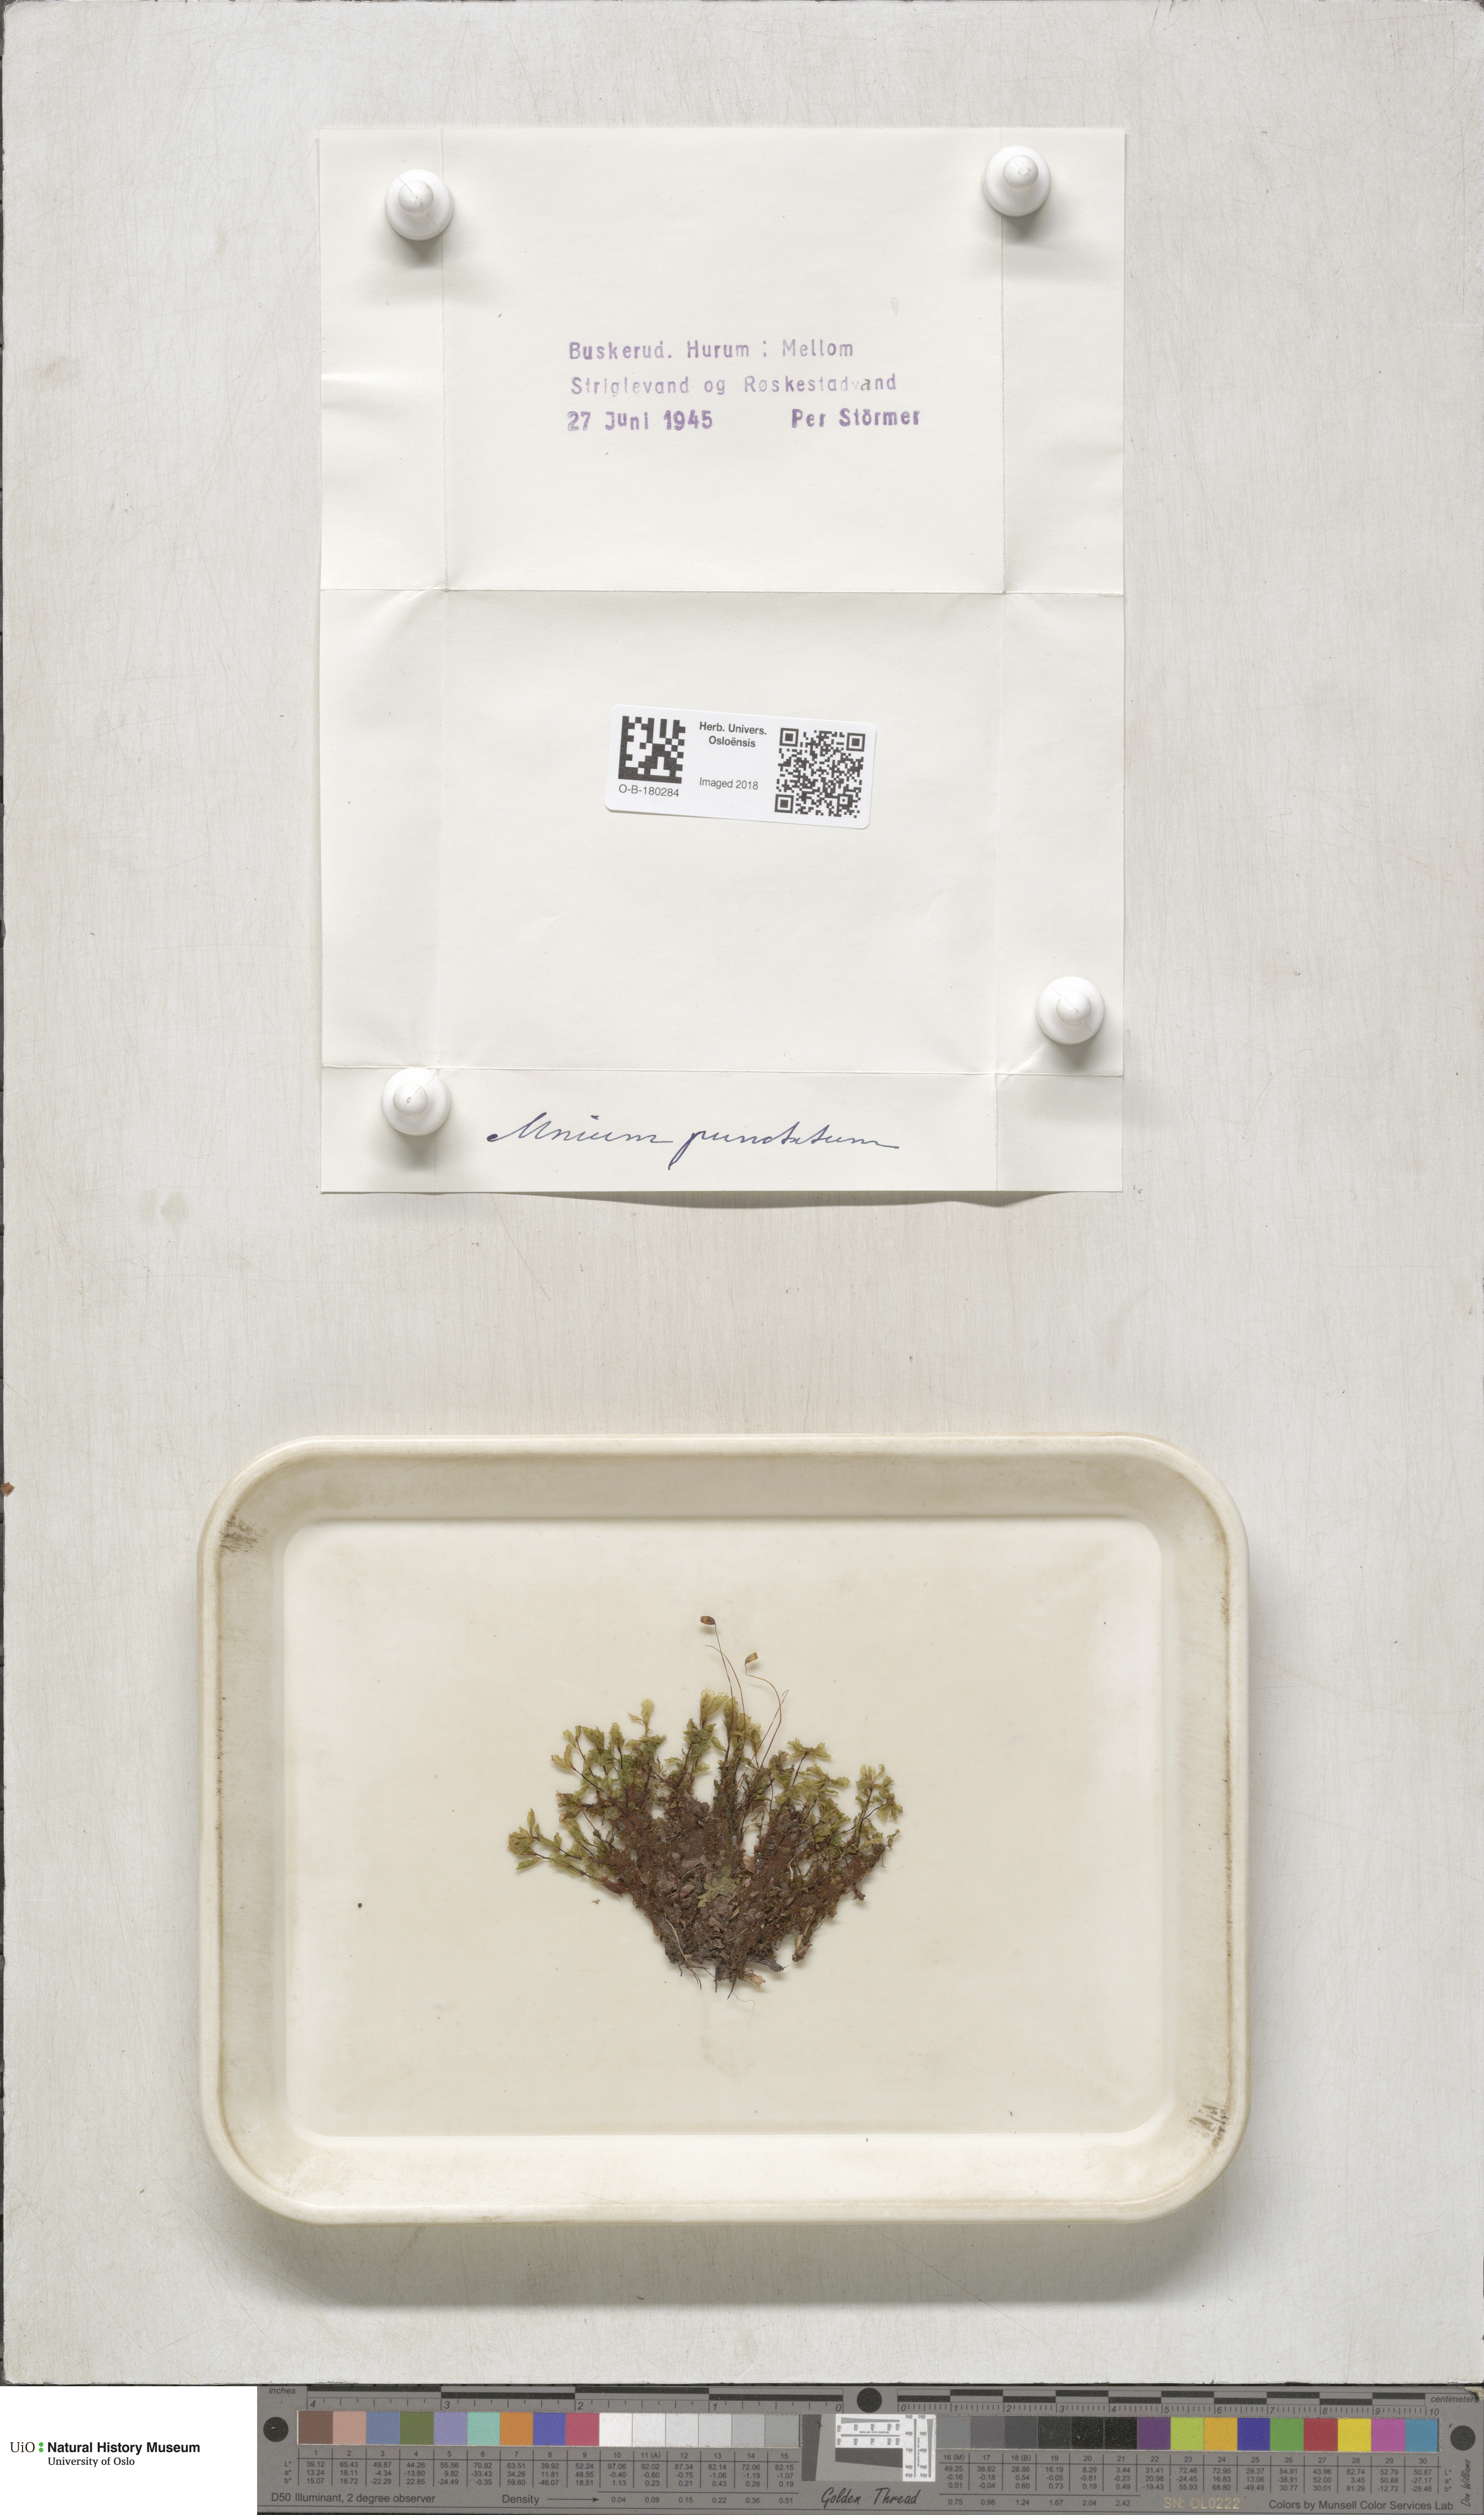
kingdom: Plantae
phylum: Bryophyta
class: Bryopsida
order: Bryales
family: Mniaceae
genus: Rhizomnium
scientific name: Rhizomnium punctatum
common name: Dotted leafy moss
